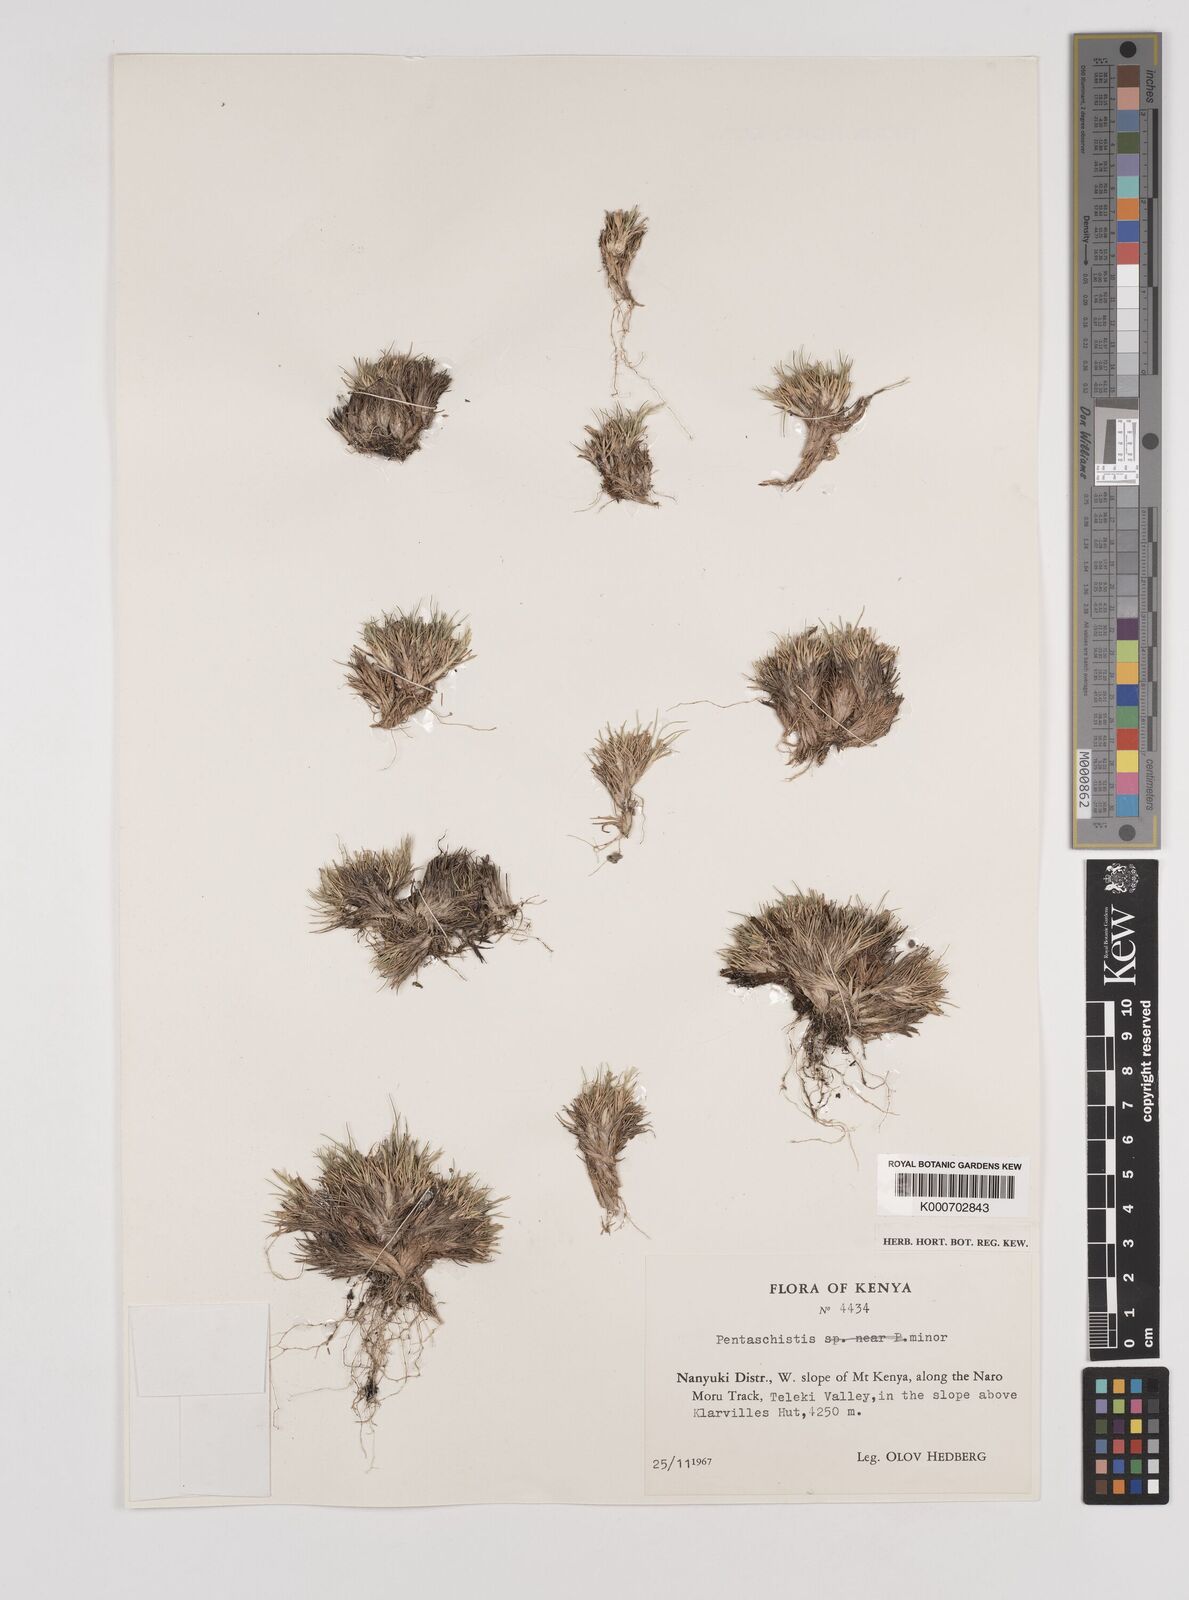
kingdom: Plantae
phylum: Tracheophyta
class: Liliopsida
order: Poales
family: Poaceae
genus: Pentameris
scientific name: Pentameris minor
